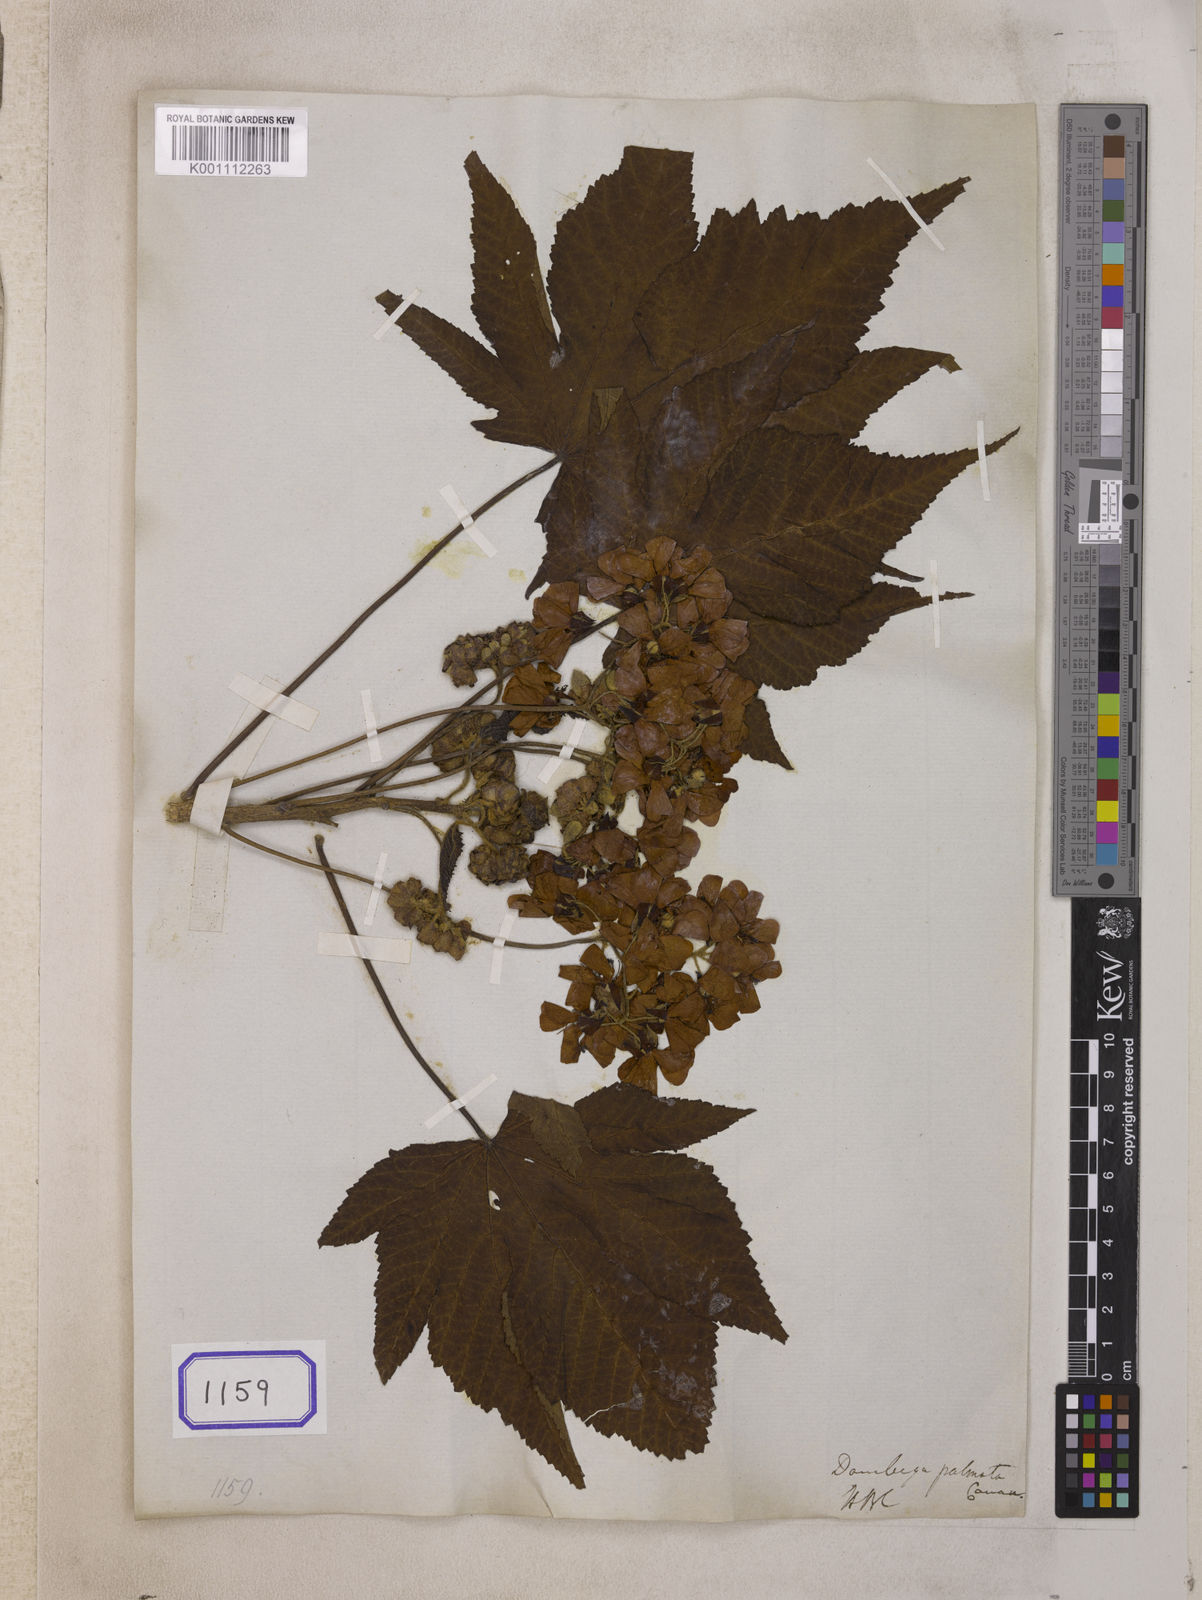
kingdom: Plantae
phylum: Tracheophyta
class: Magnoliopsida
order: Malvales
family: Malvaceae
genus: Dombeya
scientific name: Dombeya acutangula
